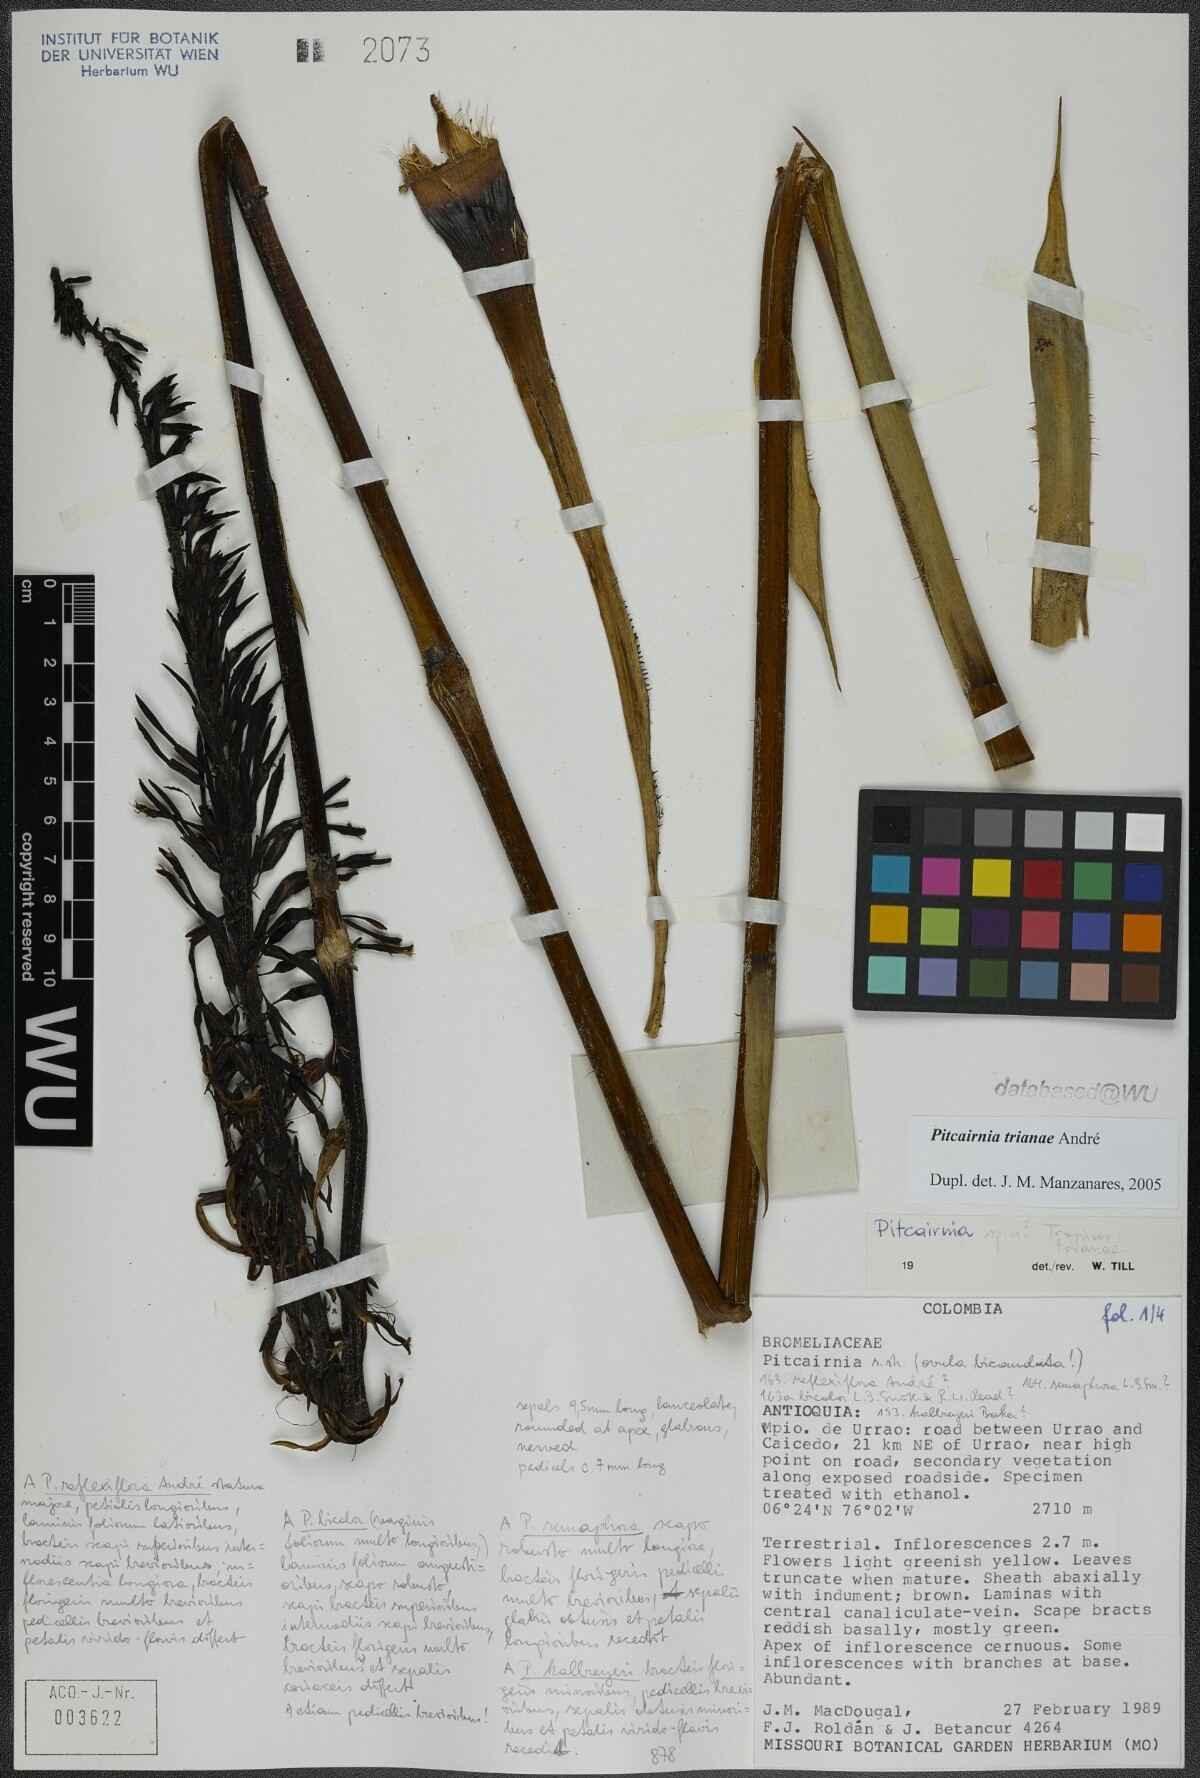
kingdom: Plantae
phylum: Tracheophyta
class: Liliopsida
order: Poales
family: Bromeliaceae
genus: Pitcairnia
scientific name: Pitcairnia trianae
